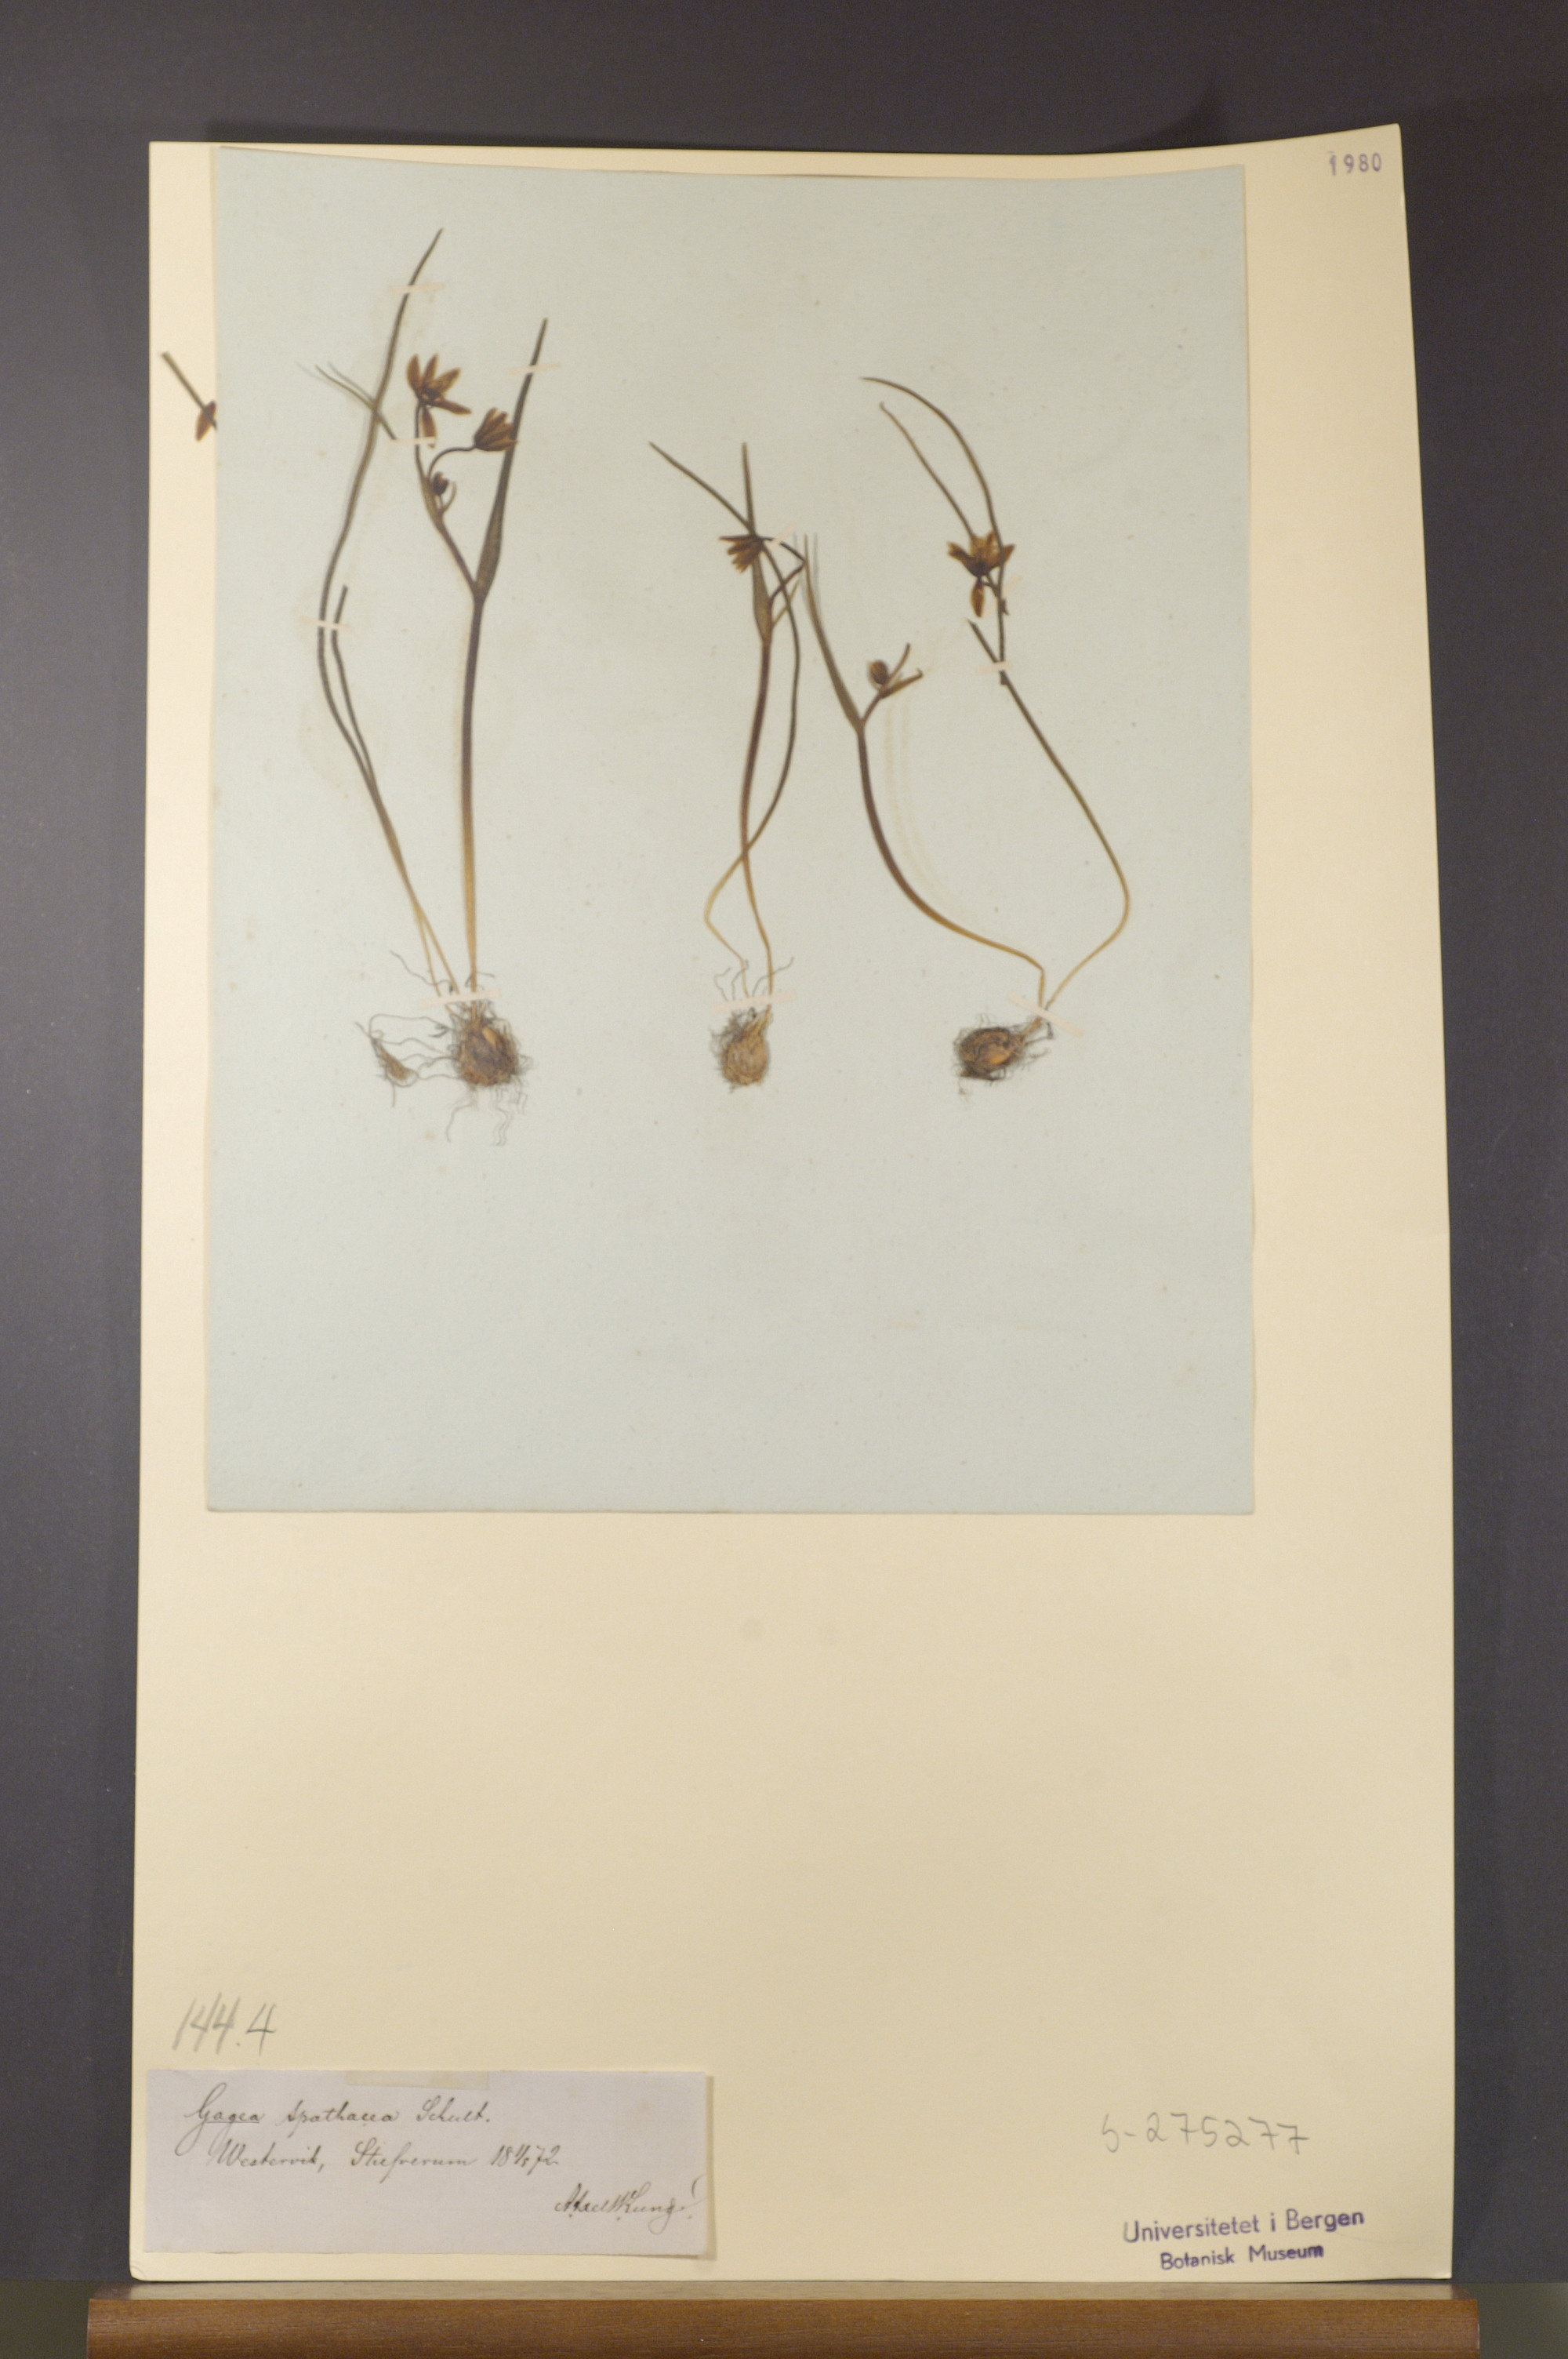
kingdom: Plantae
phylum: Tracheophyta
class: Liliopsida
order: Liliales
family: Liliaceae
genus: Gagea
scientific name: Gagea spathacea
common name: Belgian gagea
